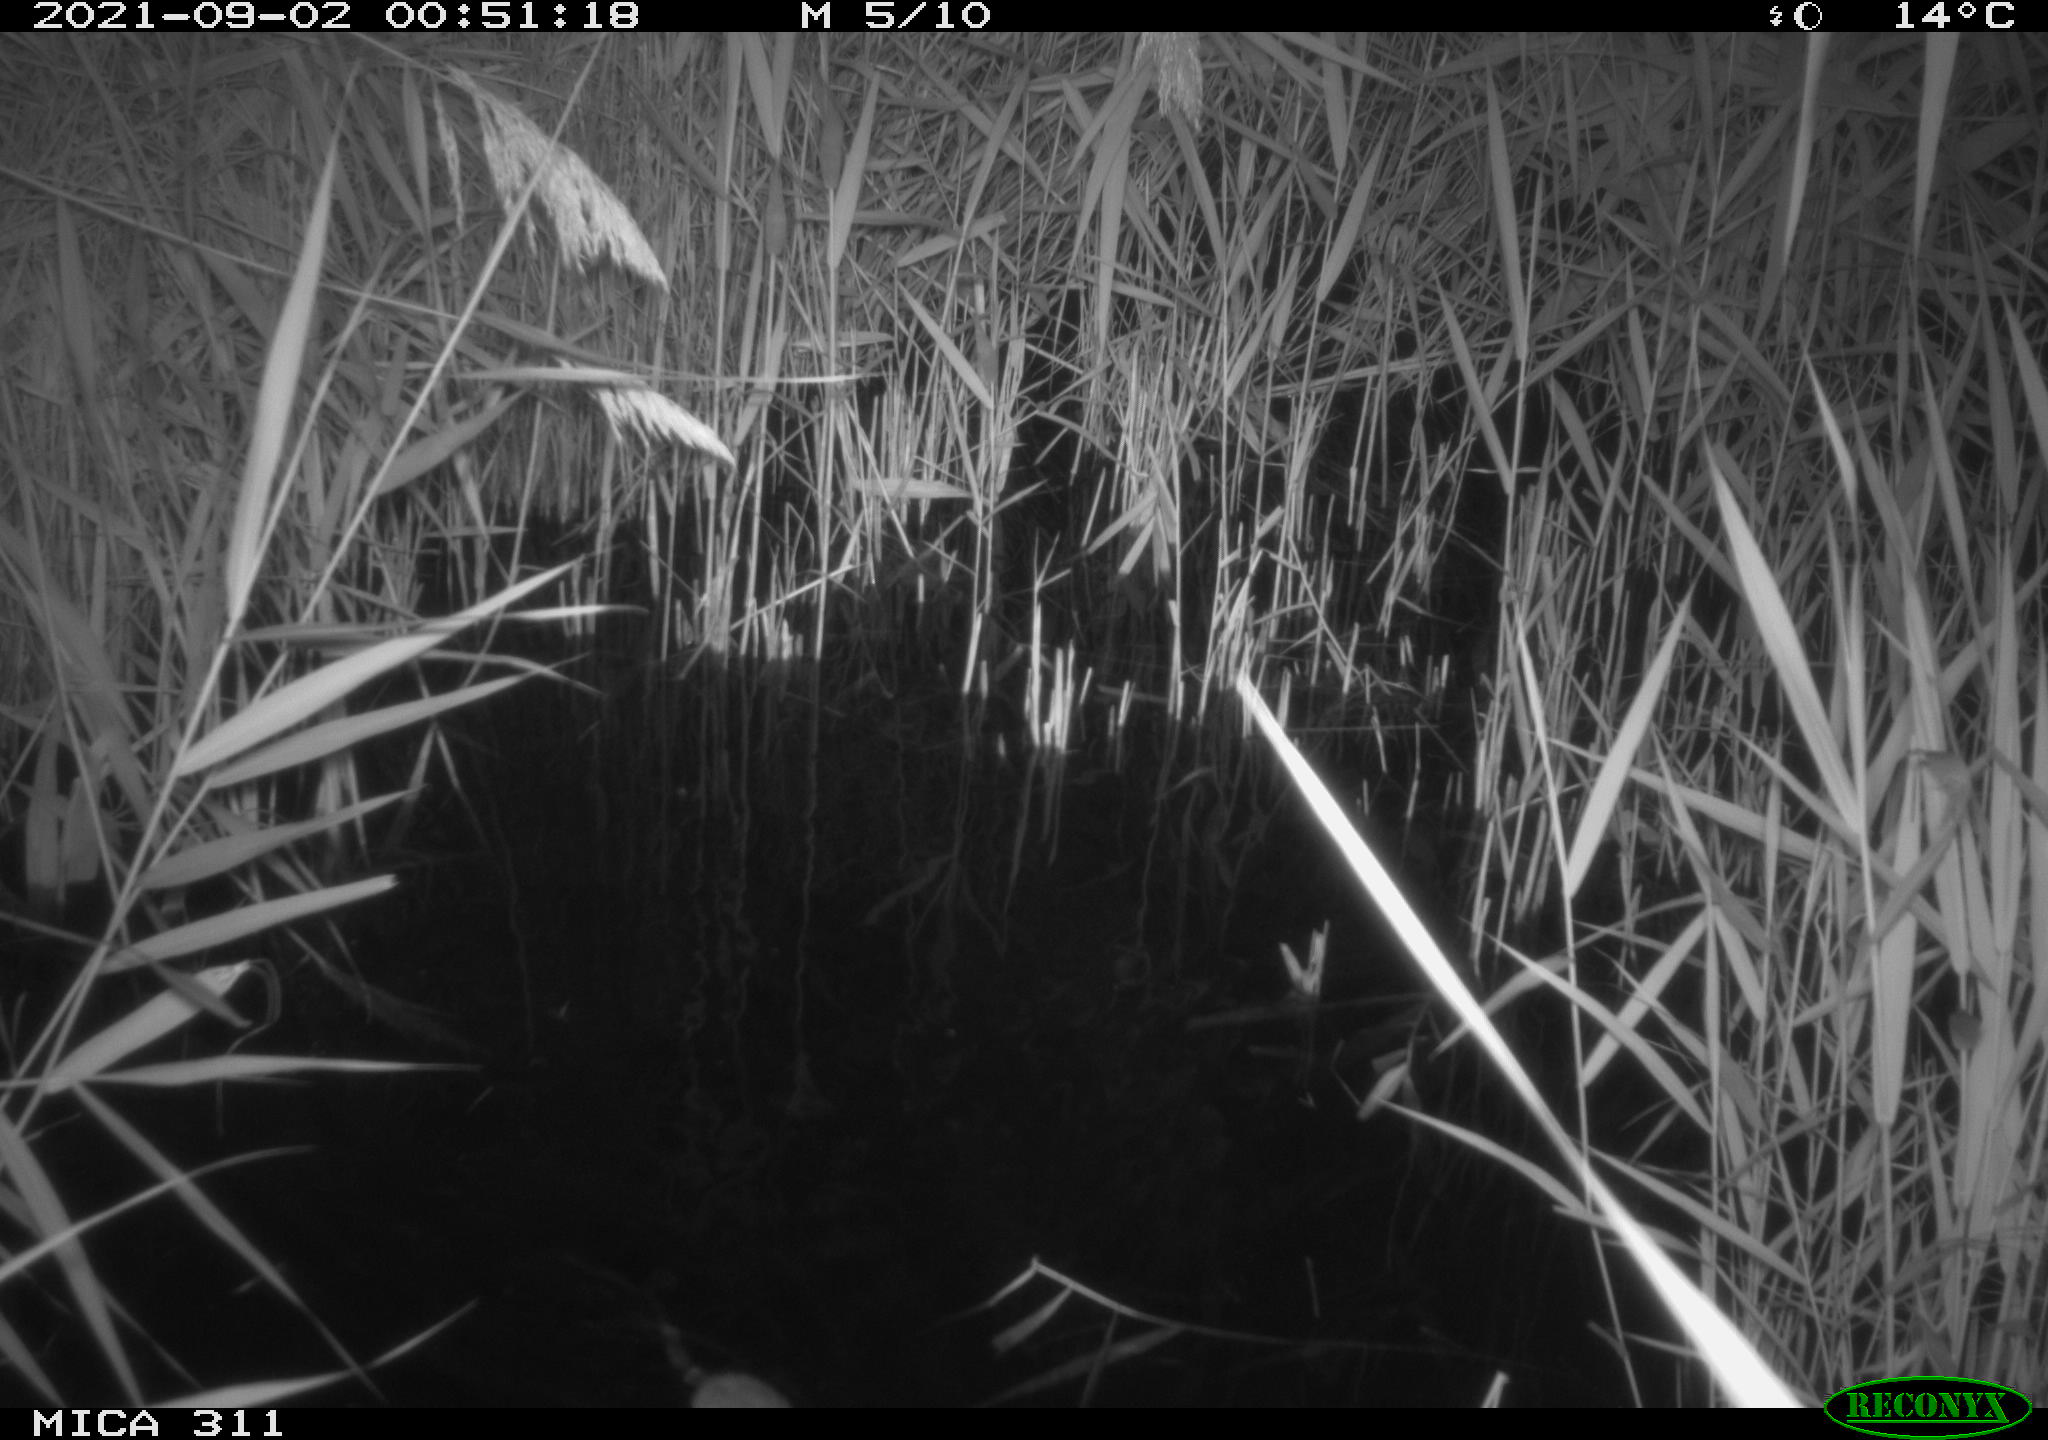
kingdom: Animalia
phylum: Chordata
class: Mammalia
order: Rodentia
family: Muridae
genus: Rattus
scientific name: Rattus norvegicus
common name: Brown rat
